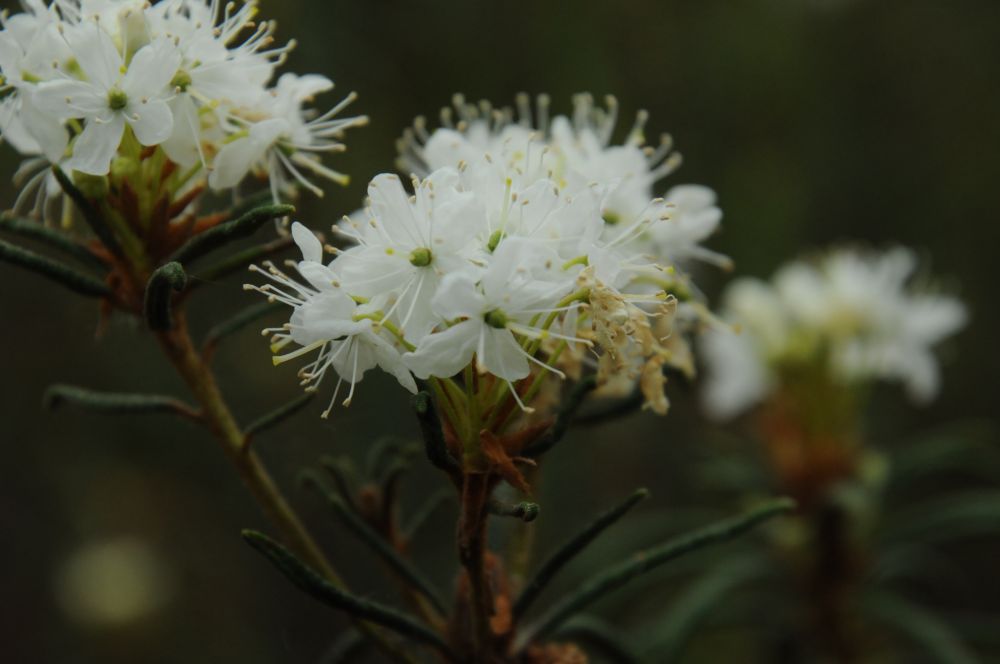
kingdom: Plantae
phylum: Tracheophyta
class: Magnoliopsida
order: Ericales
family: Ericaceae
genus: Rhododendron
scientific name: Rhododendron tomentosum
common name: Marsh labrador tea
